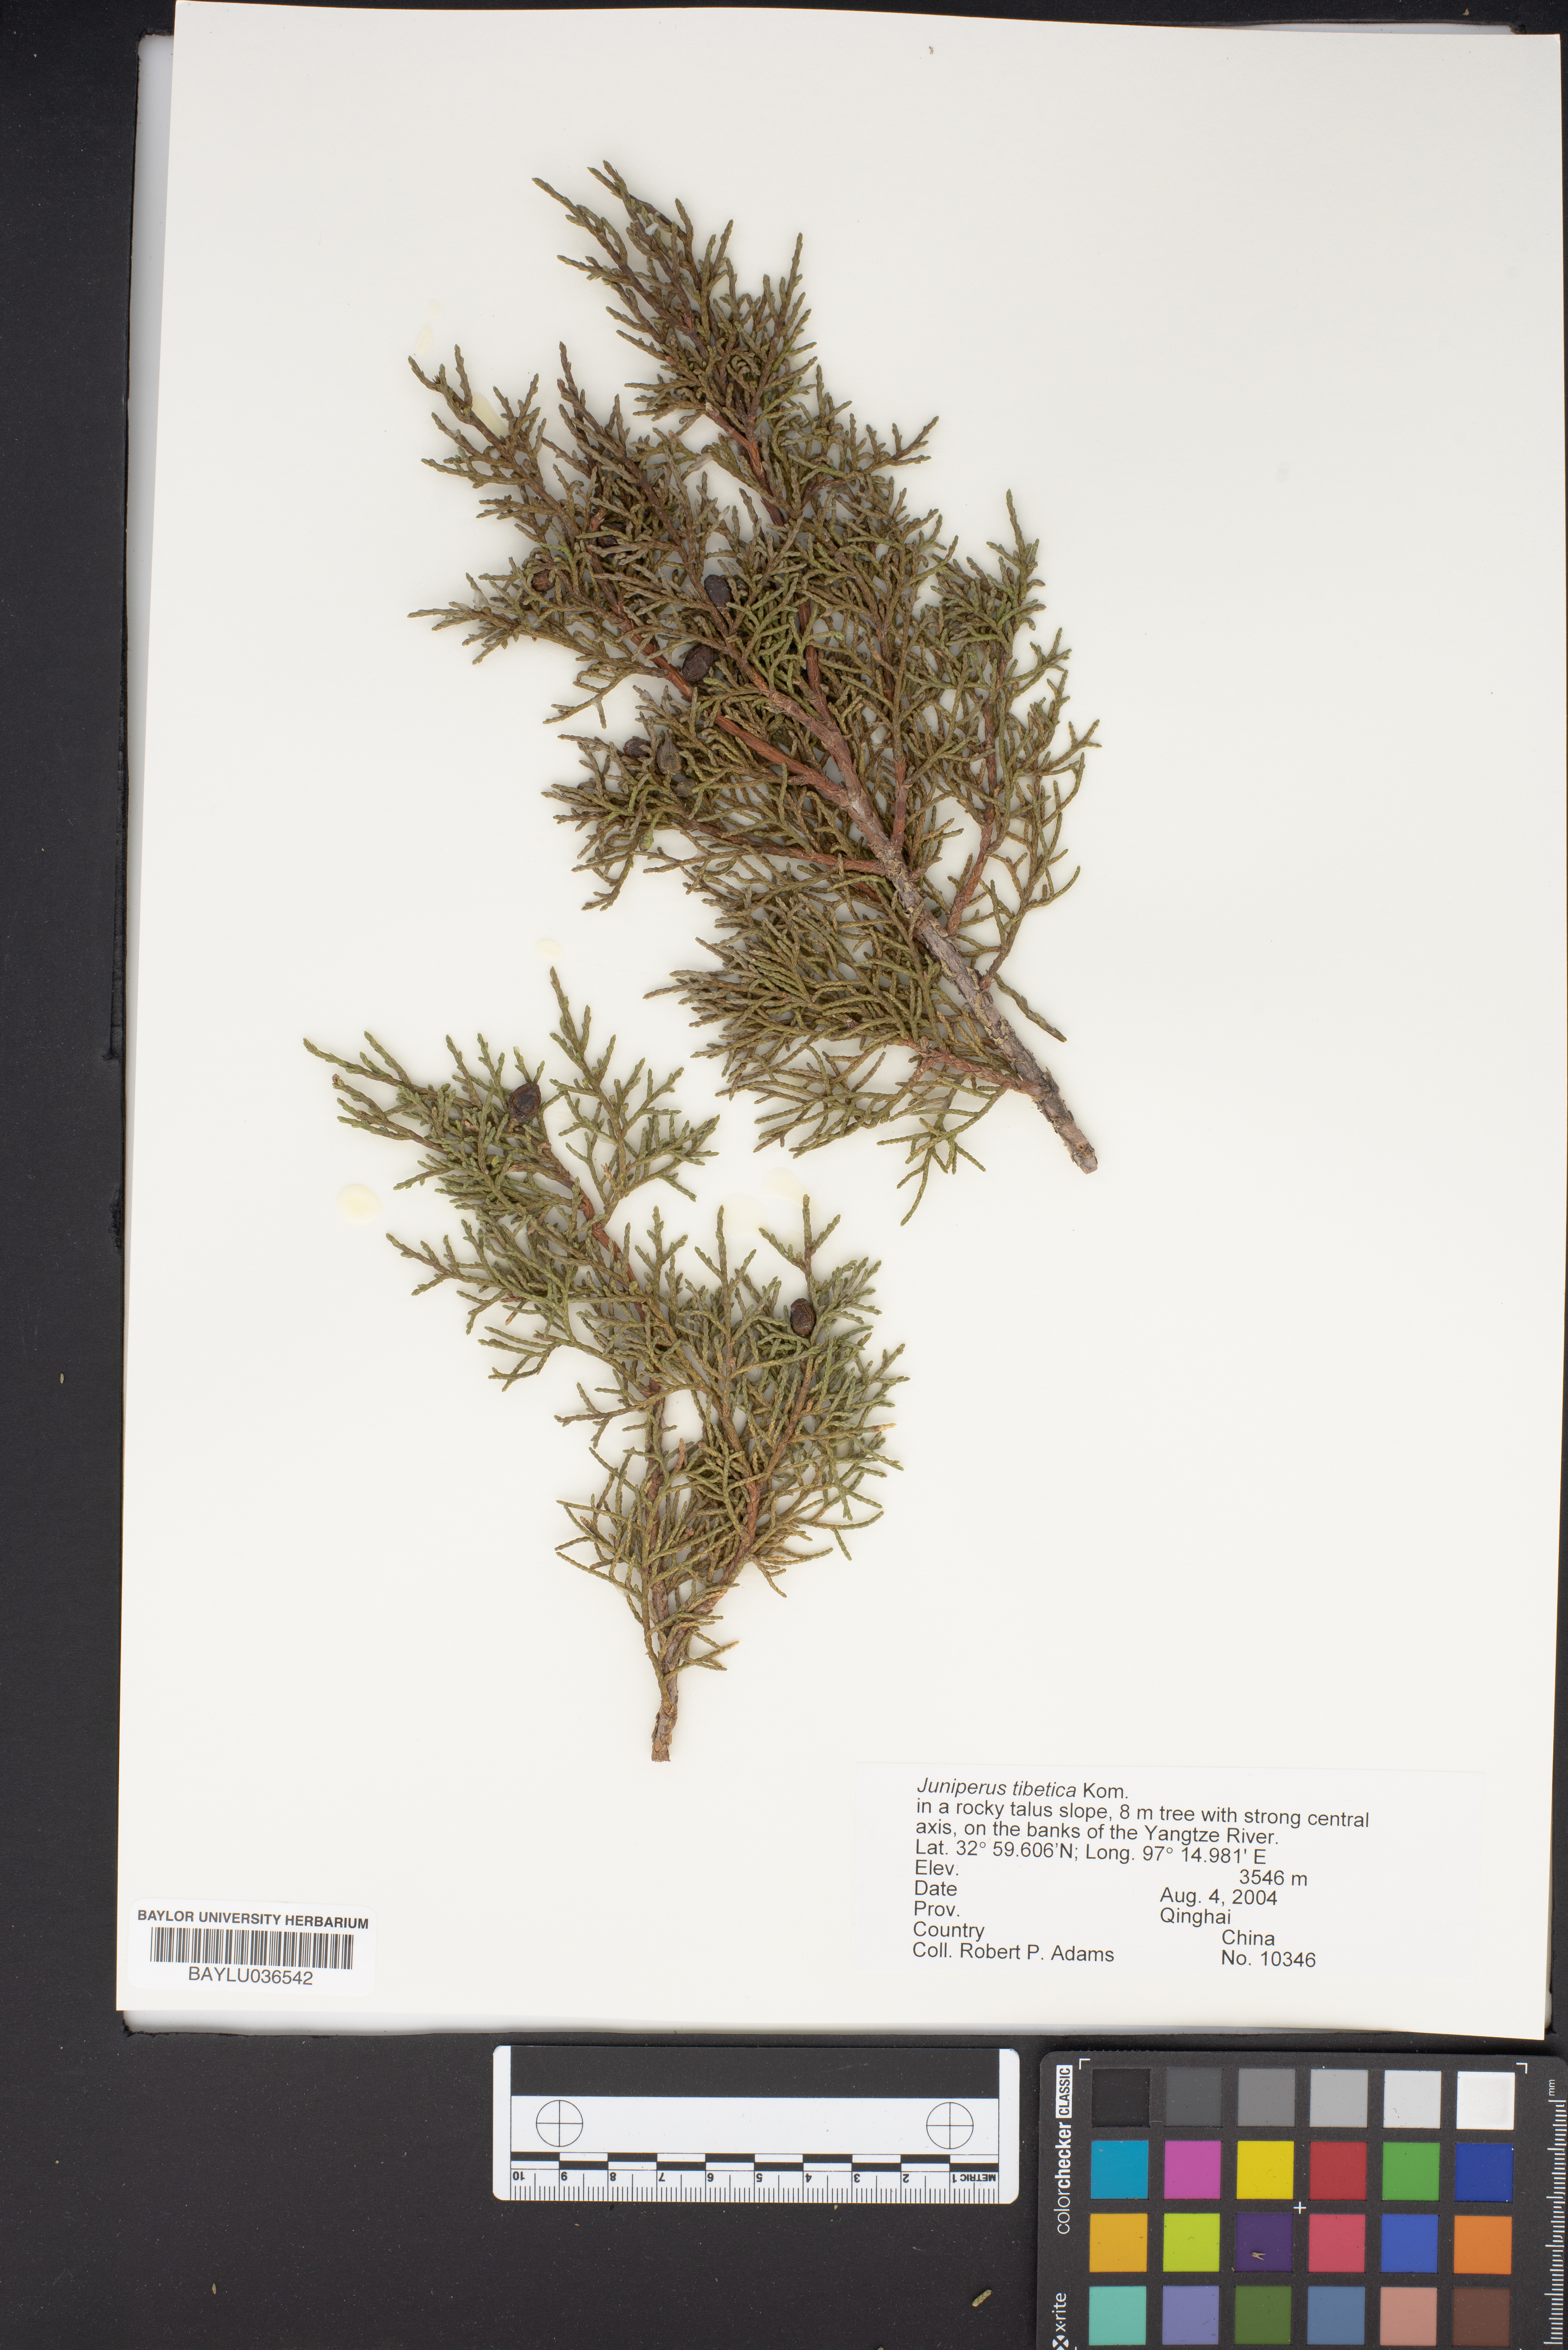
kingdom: Plantae
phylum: Tracheophyta
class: Pinopsida
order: Pinales
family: Cupressaceae
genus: Juniperus
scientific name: Juniperus tibetica
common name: Tibetan juniper
